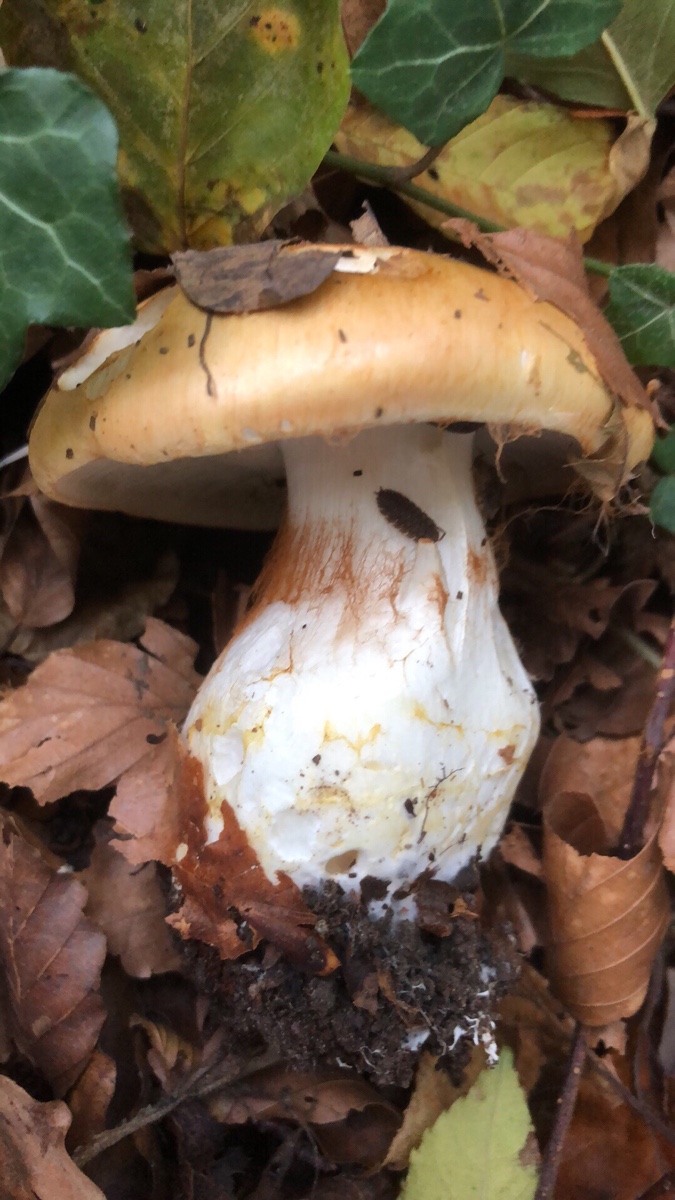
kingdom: Fungi
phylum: Basidiomycota
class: Agaricomycetes
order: Agaricales
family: Cortinariaceae
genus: Phlegmacium
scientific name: Phlegmacium rhizophorum
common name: finkornet slørhat
